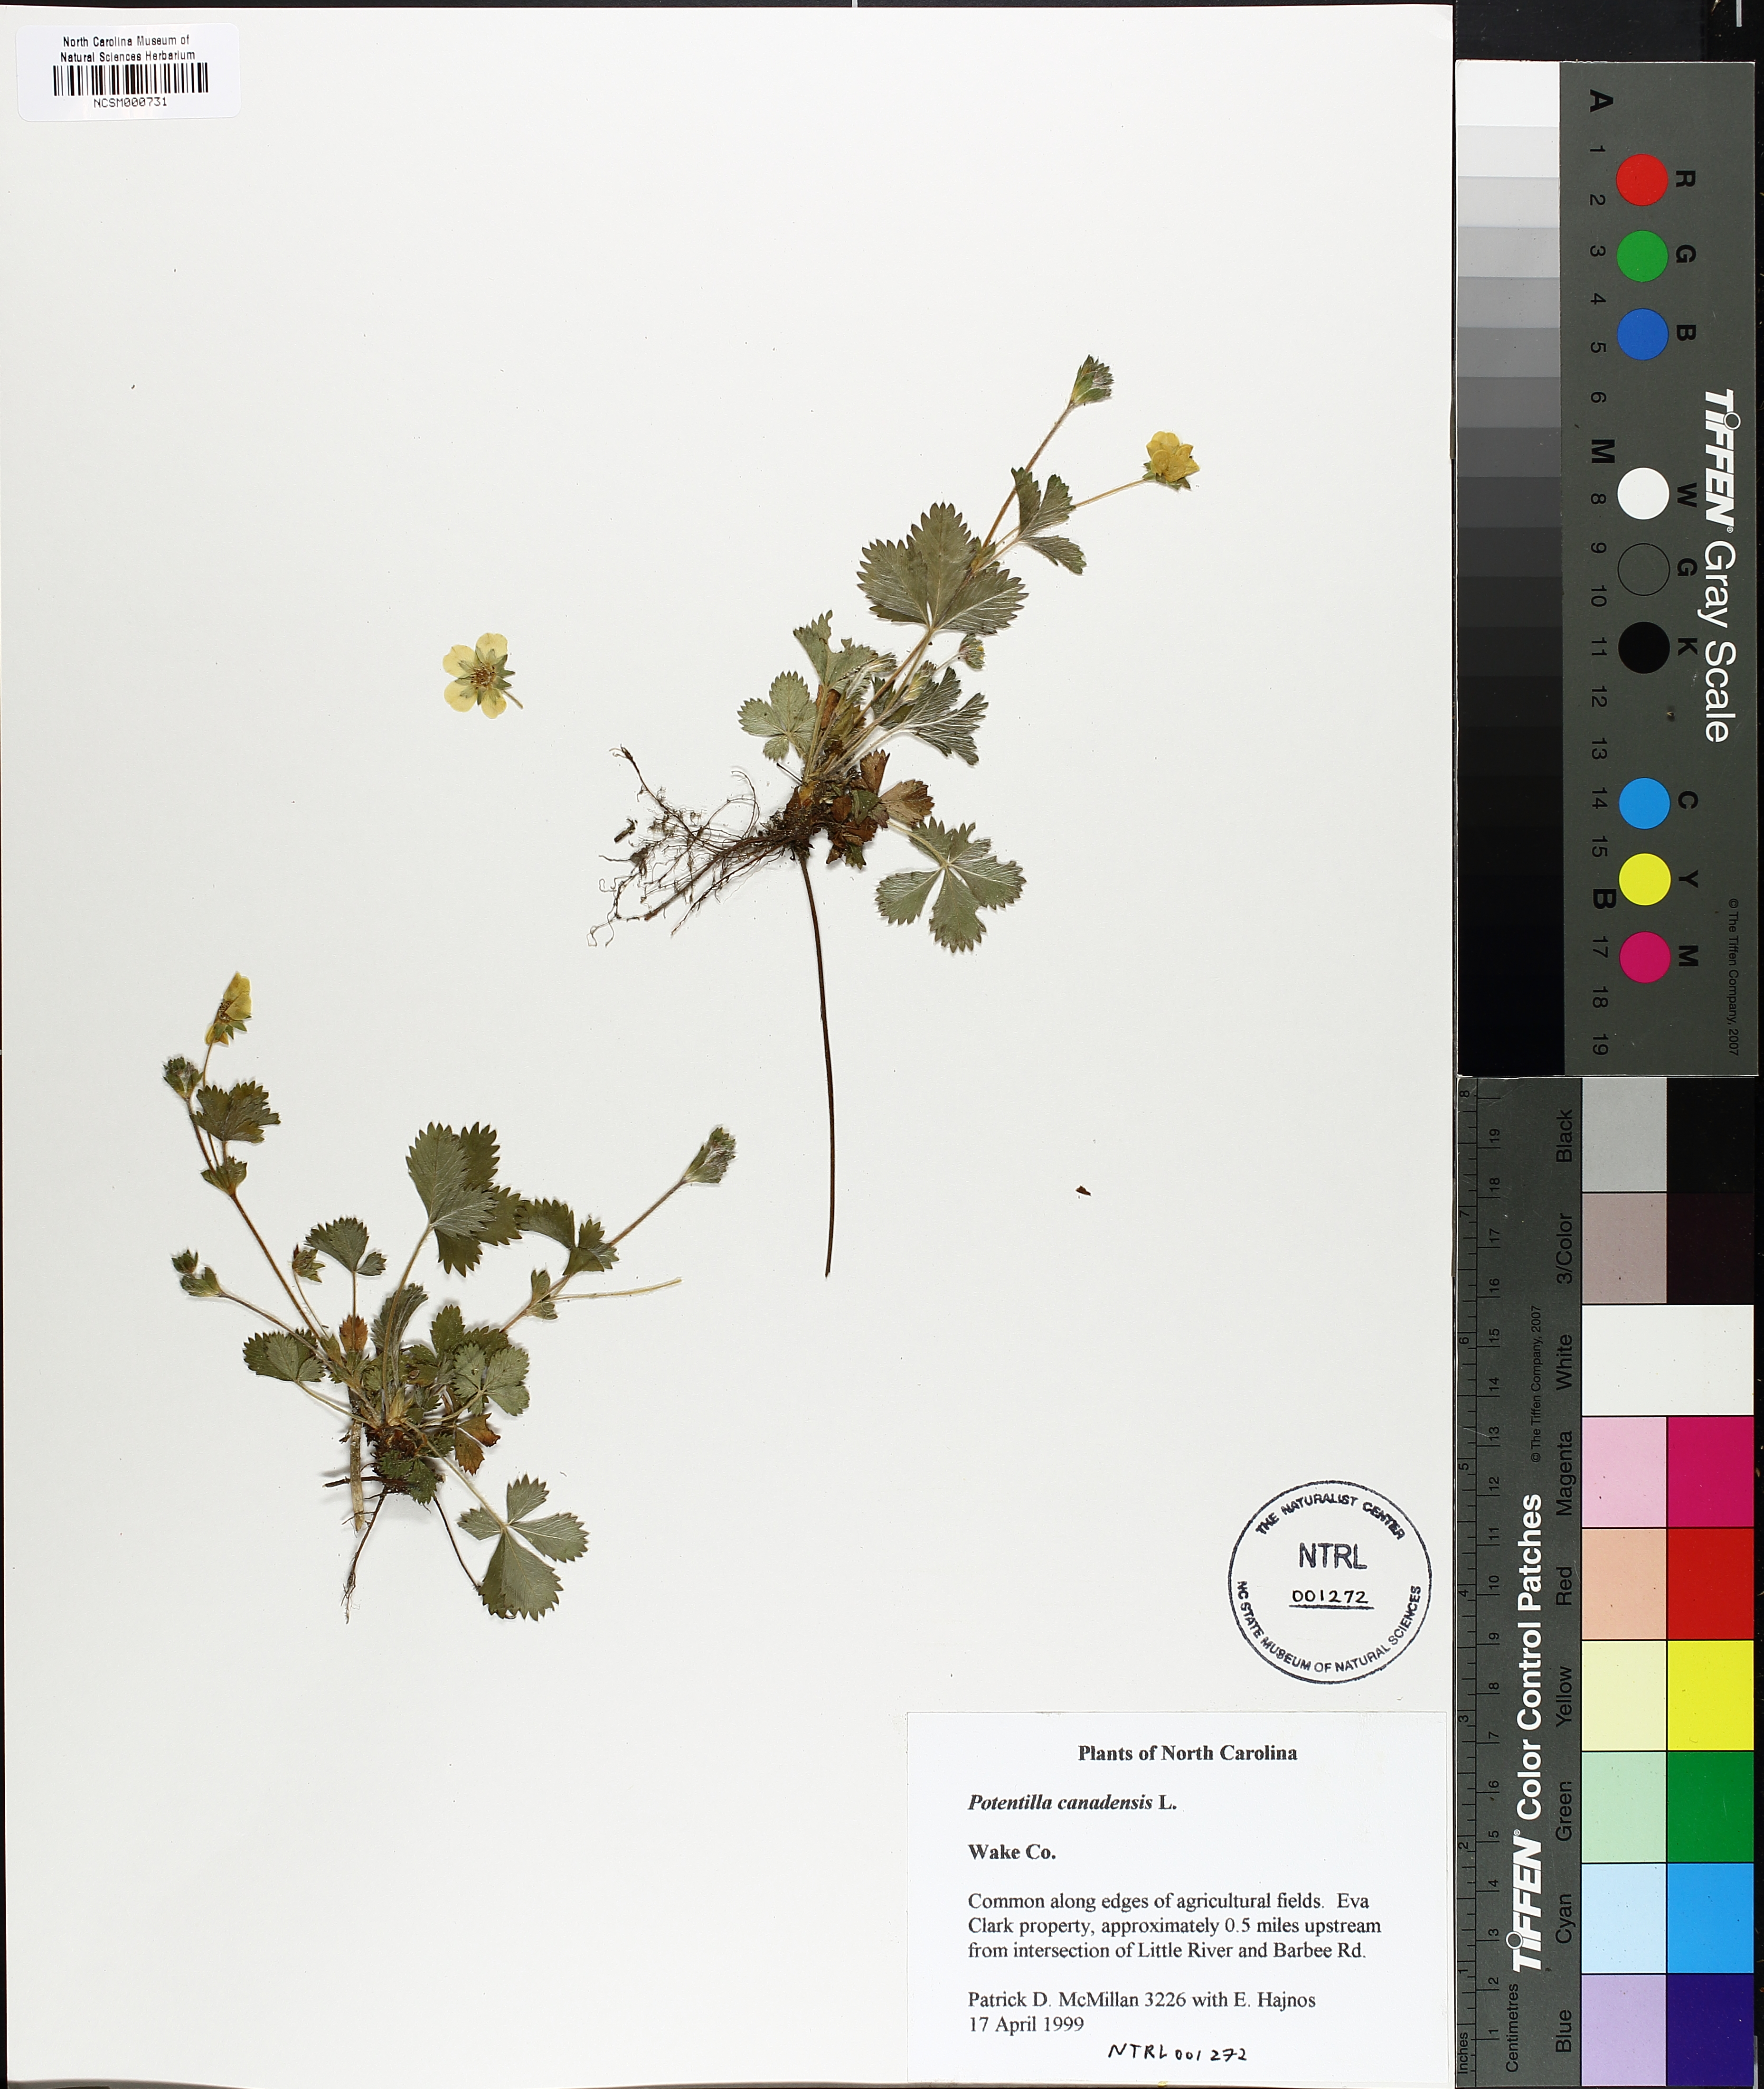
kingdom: Plantae
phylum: Tracheophyta
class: Magnoliopsida
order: Rosales
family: Rosaceae
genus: Potentilla
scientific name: Potentilla canadensis
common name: Canada cinquefoil
